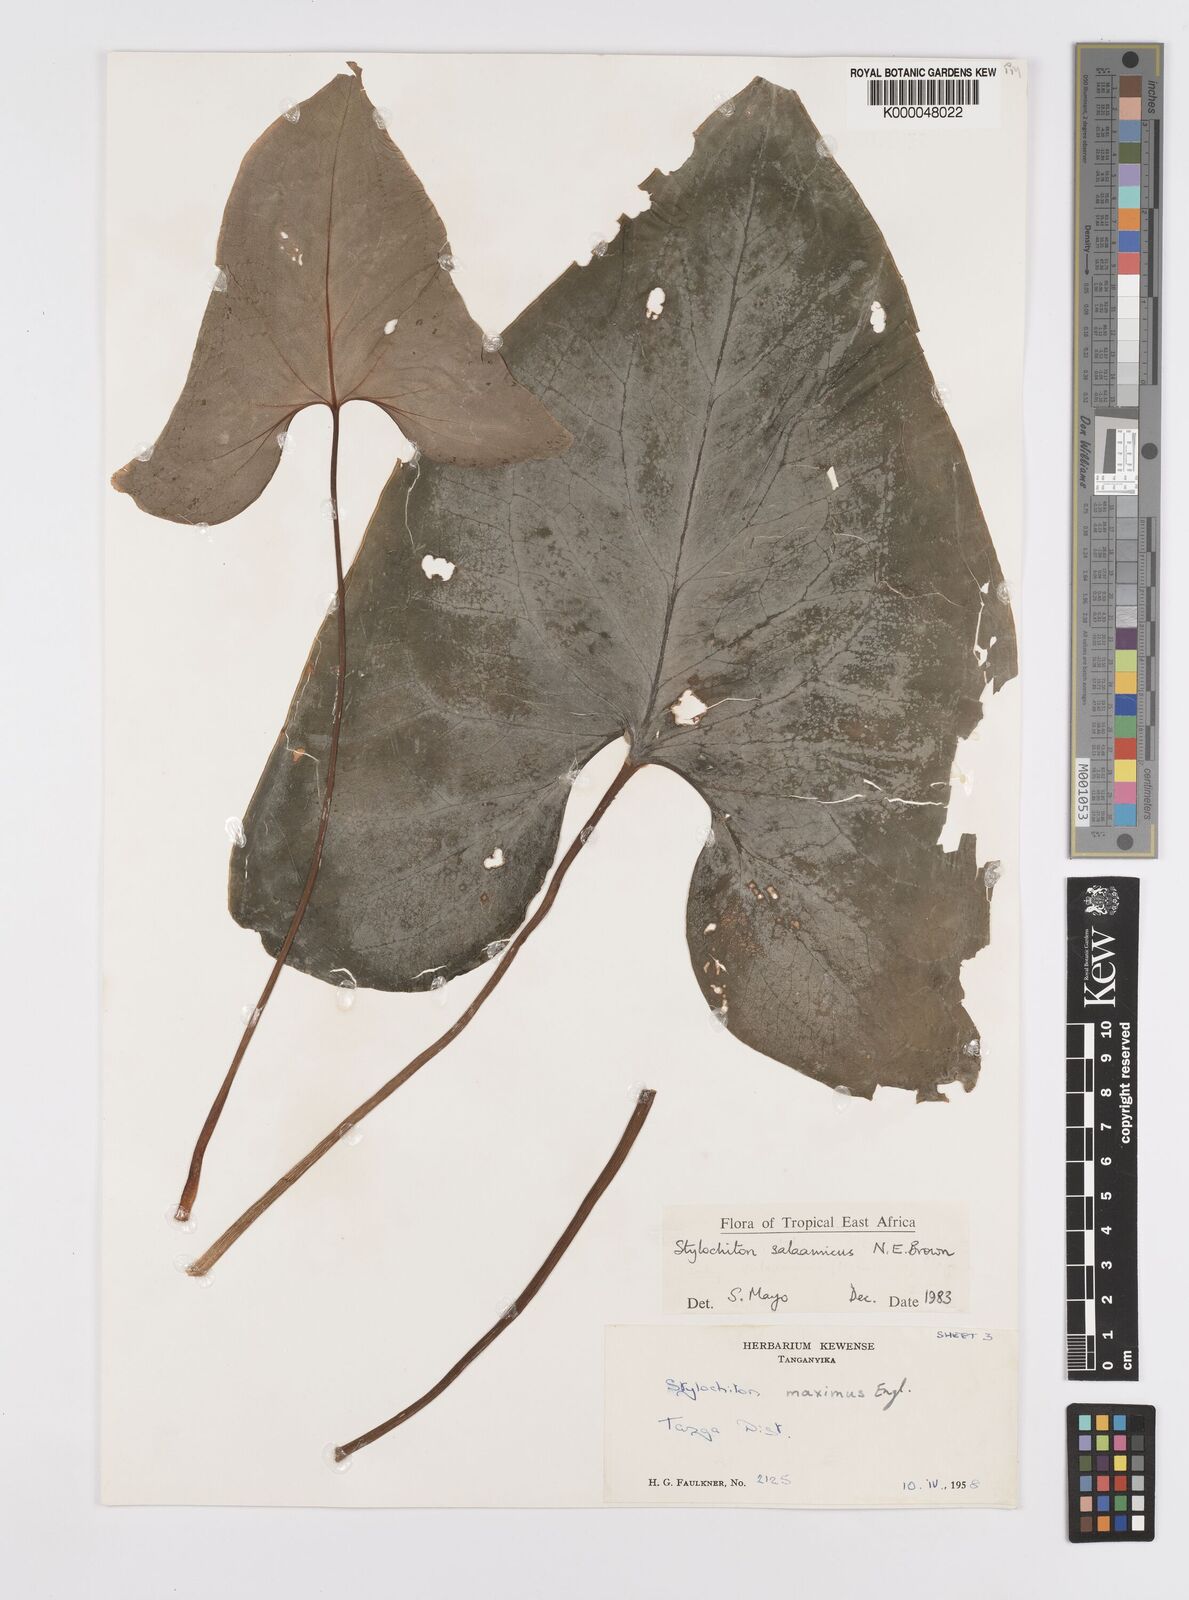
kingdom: Plantae
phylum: Tracheophyta
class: Liliopsida
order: Alismatales
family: Araceae
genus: Stylochaeton
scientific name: Stylochaeton salaamicum
